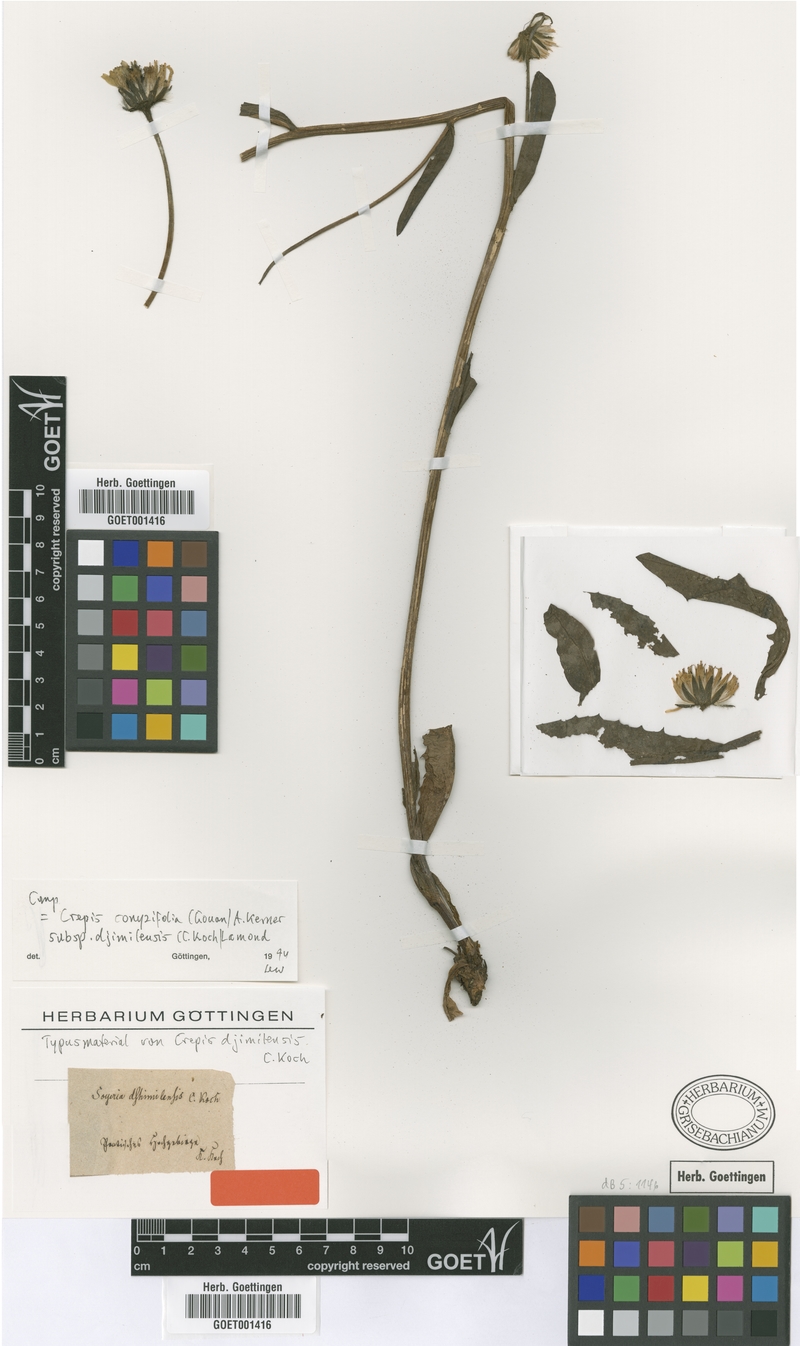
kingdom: Plantae
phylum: Tracheophyta
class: Magnoliopsida
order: Asterales
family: Asteraceae
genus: Crepis
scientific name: Crepis pyrenaica
